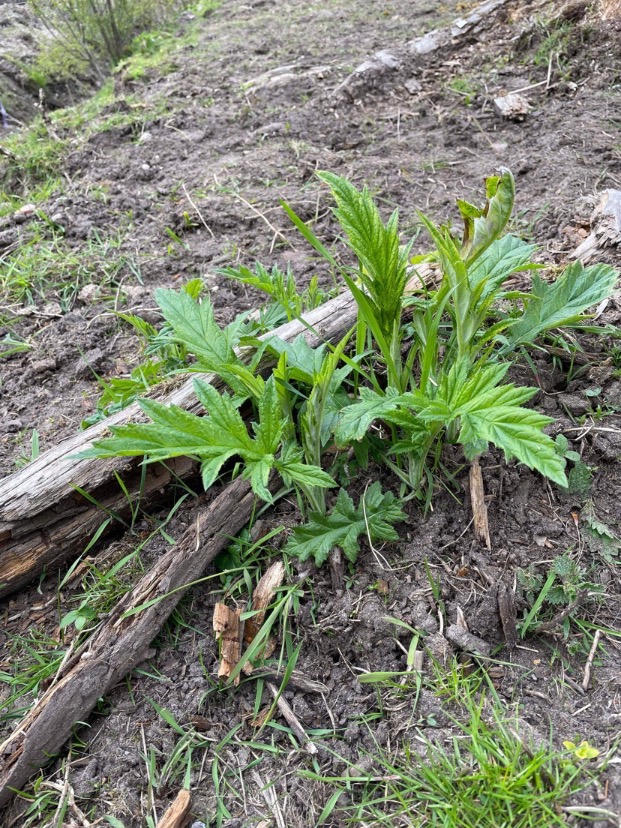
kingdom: Plantae
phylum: Tracheophyta
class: Magnoliopsida
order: Apiales
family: Apiaceae
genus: Heracleum
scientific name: Heracleum mantegazzianum
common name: Kæmpe-bjørneklo
